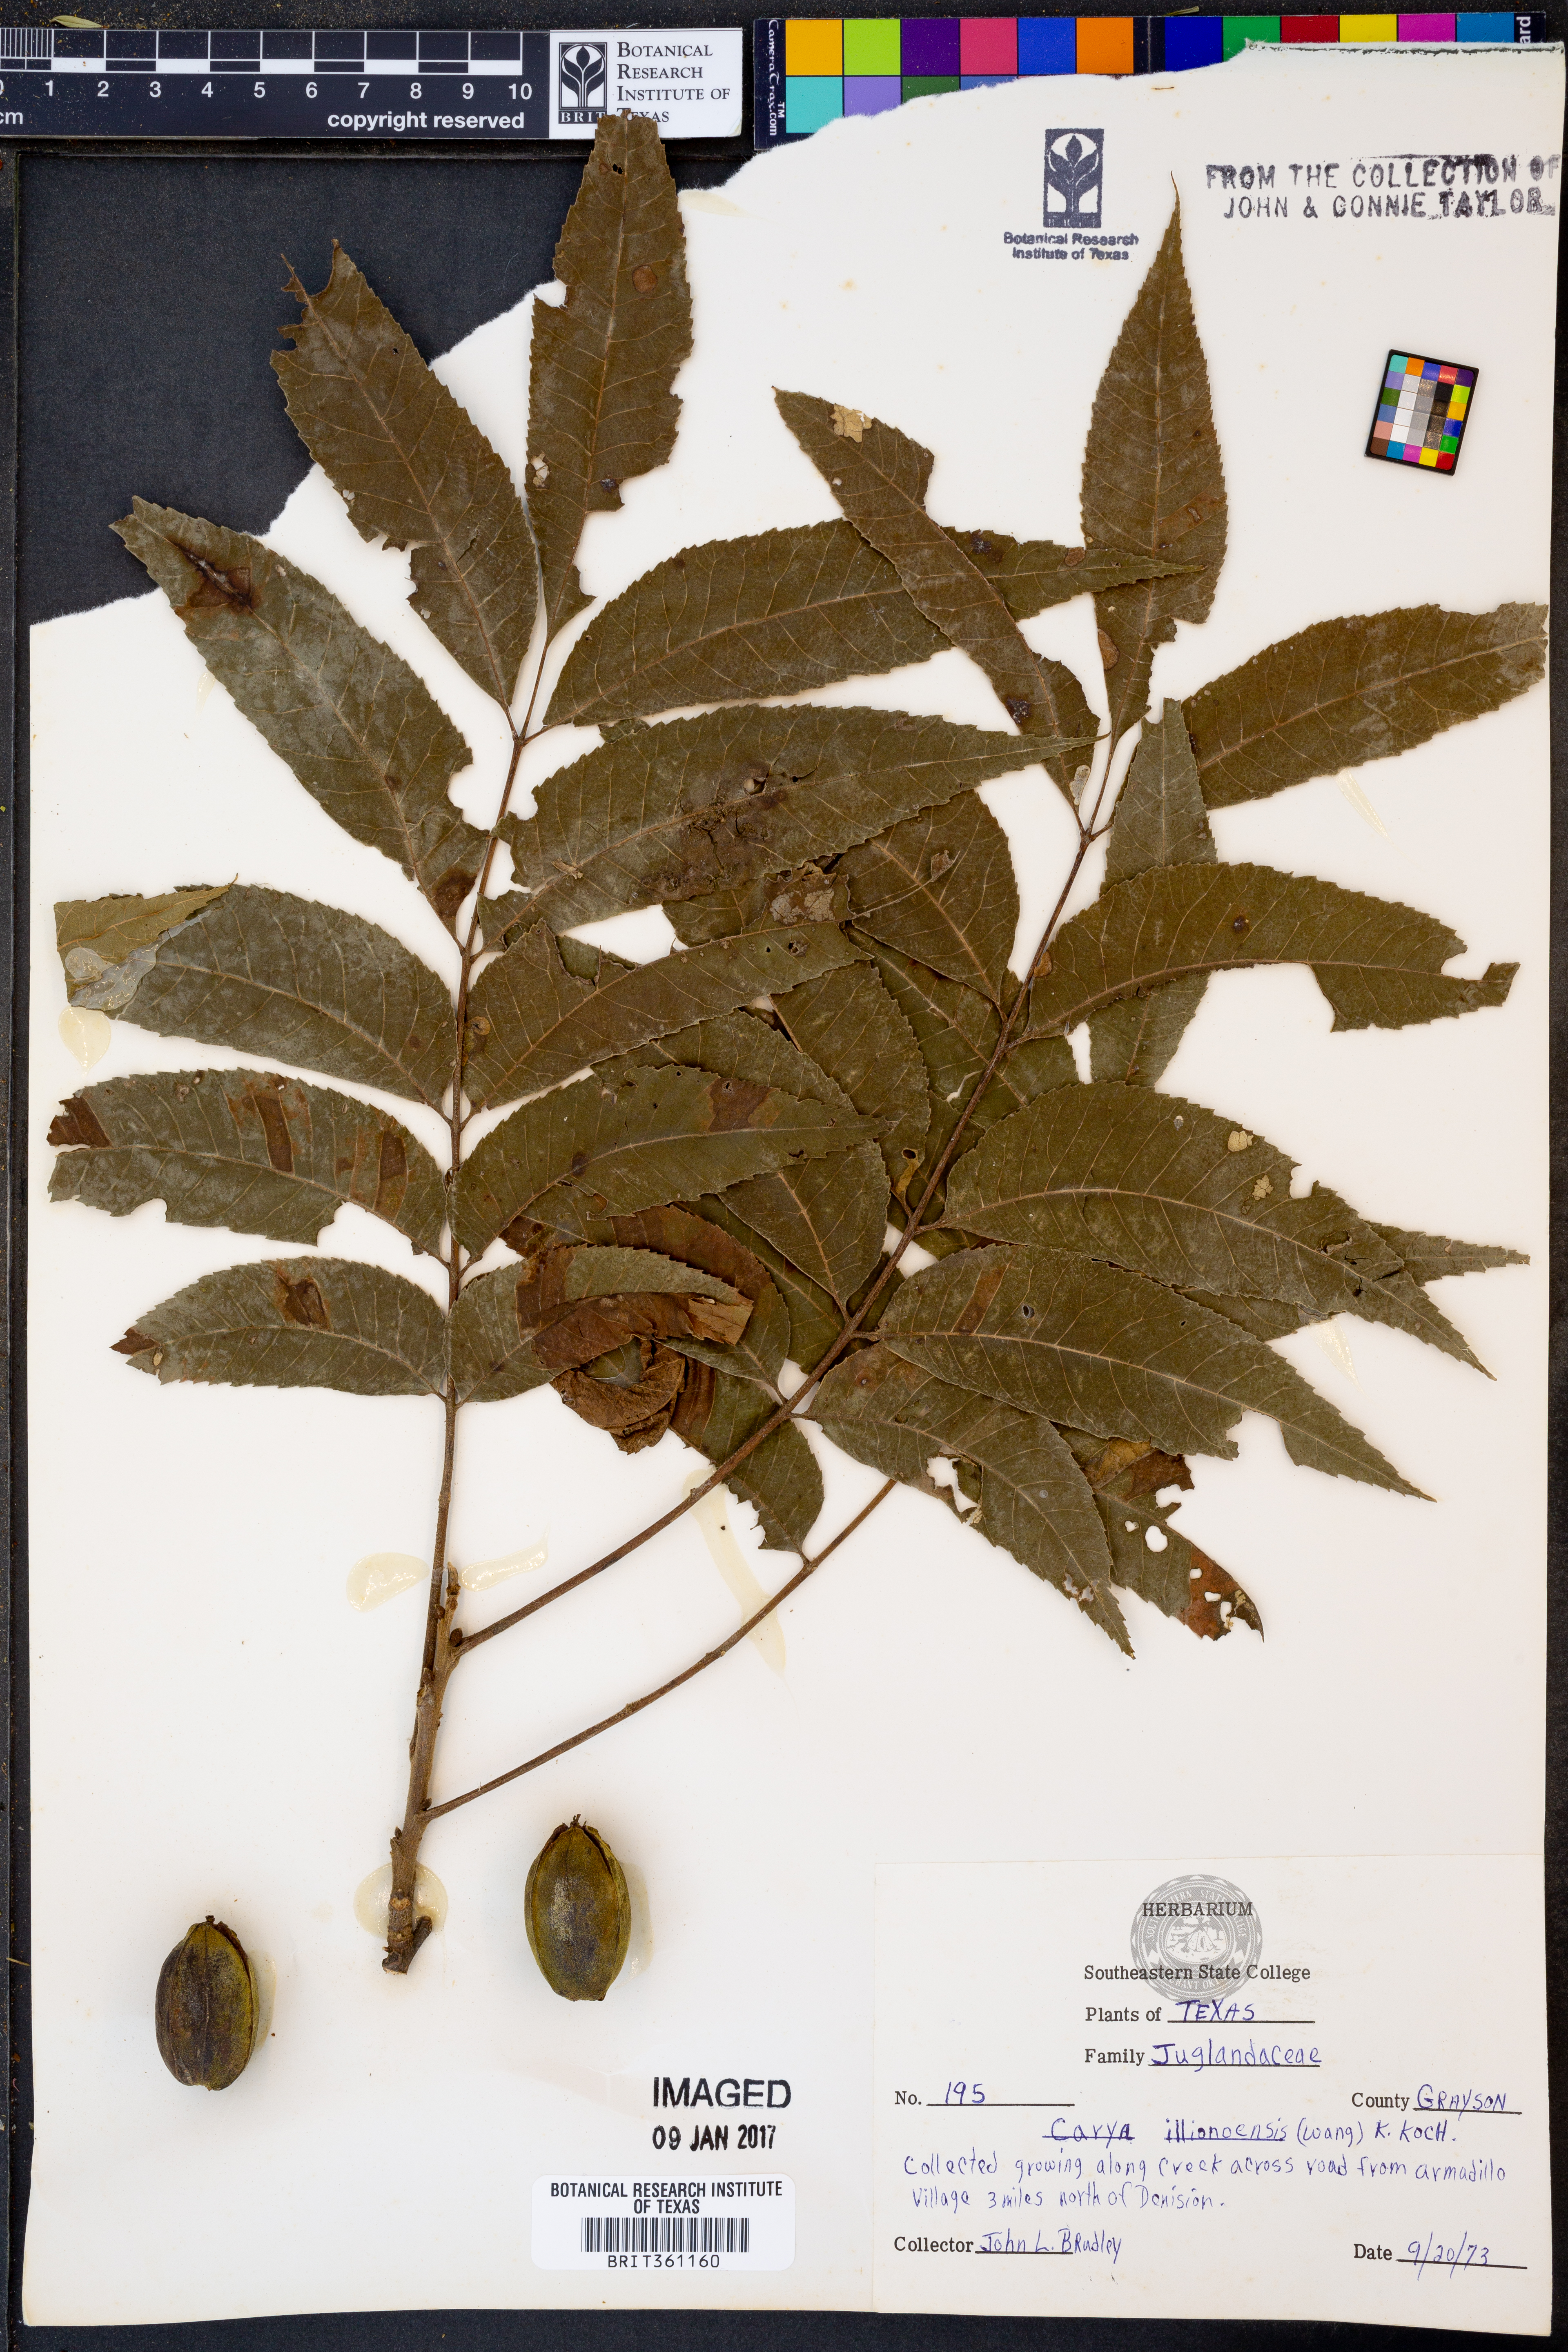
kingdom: Plantae
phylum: Tracheophyta
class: Magnoliopsida
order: Fagales
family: Juglandaceae
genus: Carya
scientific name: Carya illinoinensis
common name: Pecan
